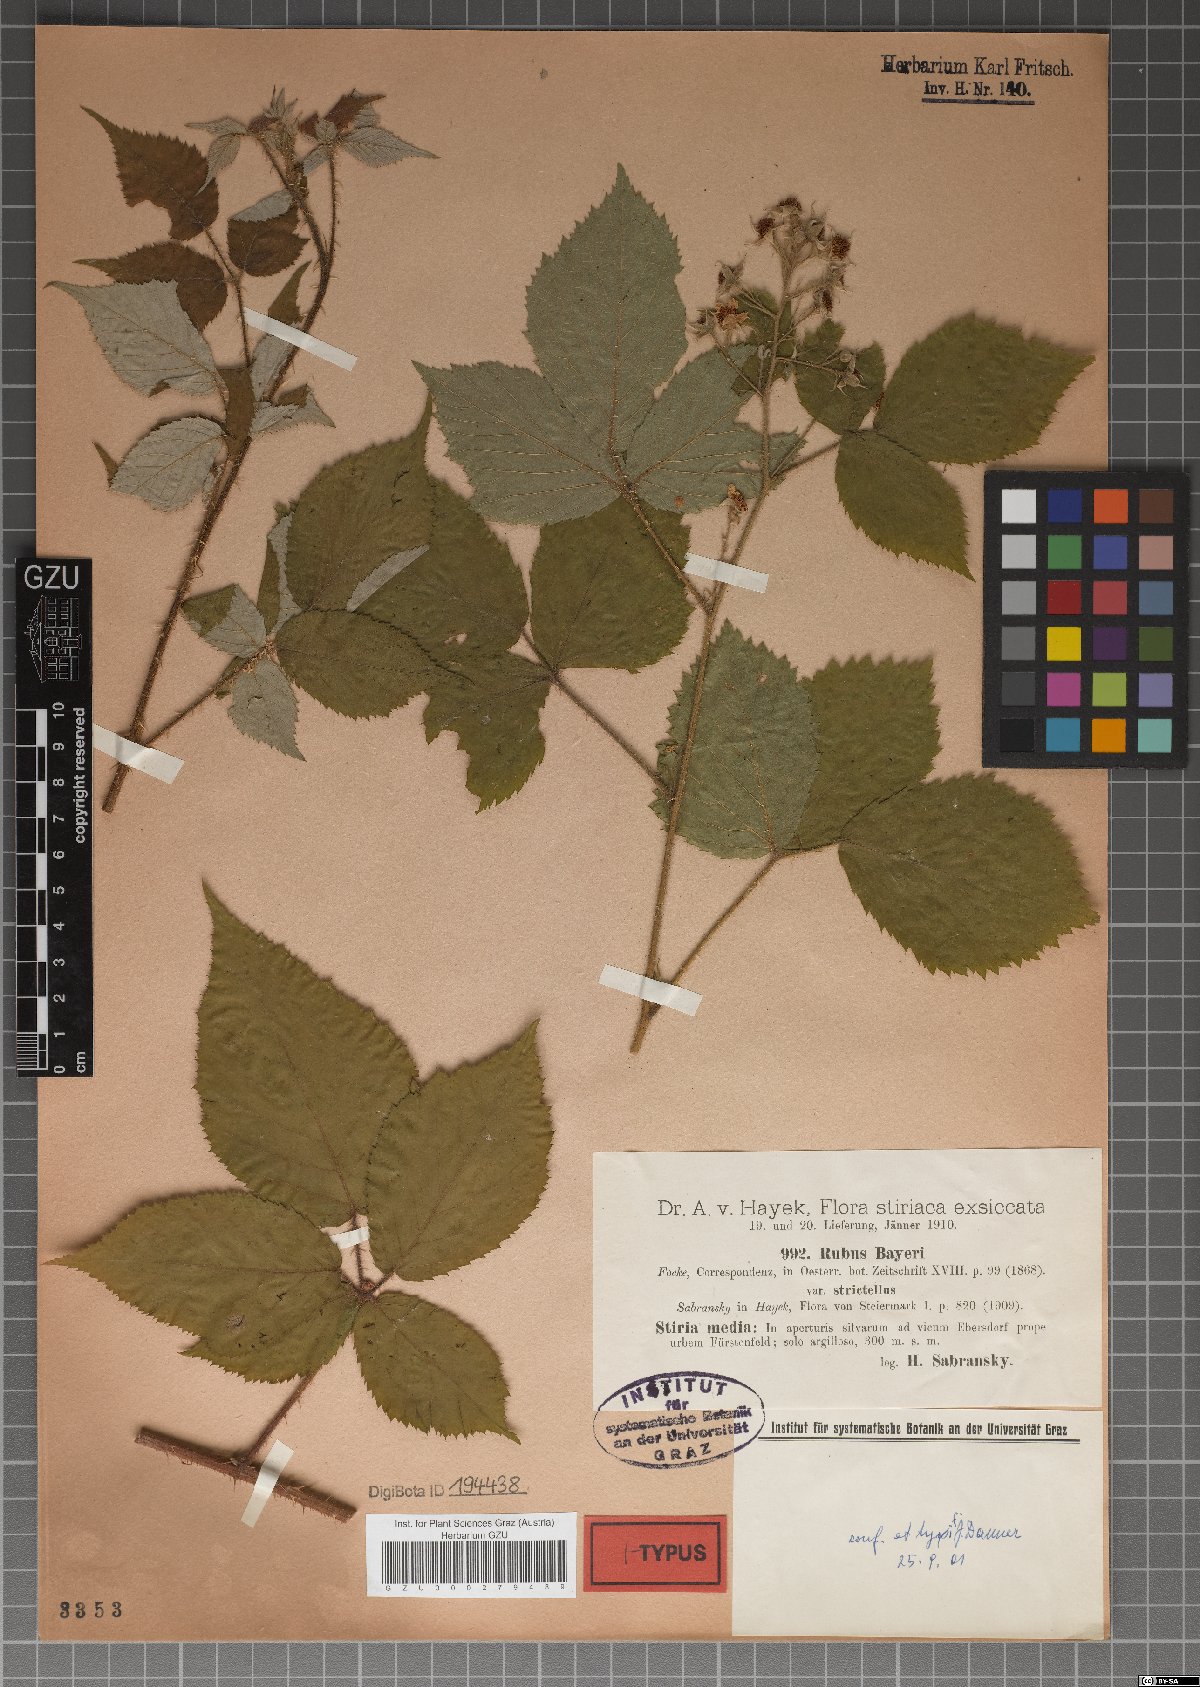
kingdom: Plantae
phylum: Tracheophyta
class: Magnoliopsida
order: Rosales
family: Rosaceae
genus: Rubus
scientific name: Rubus rivularis
